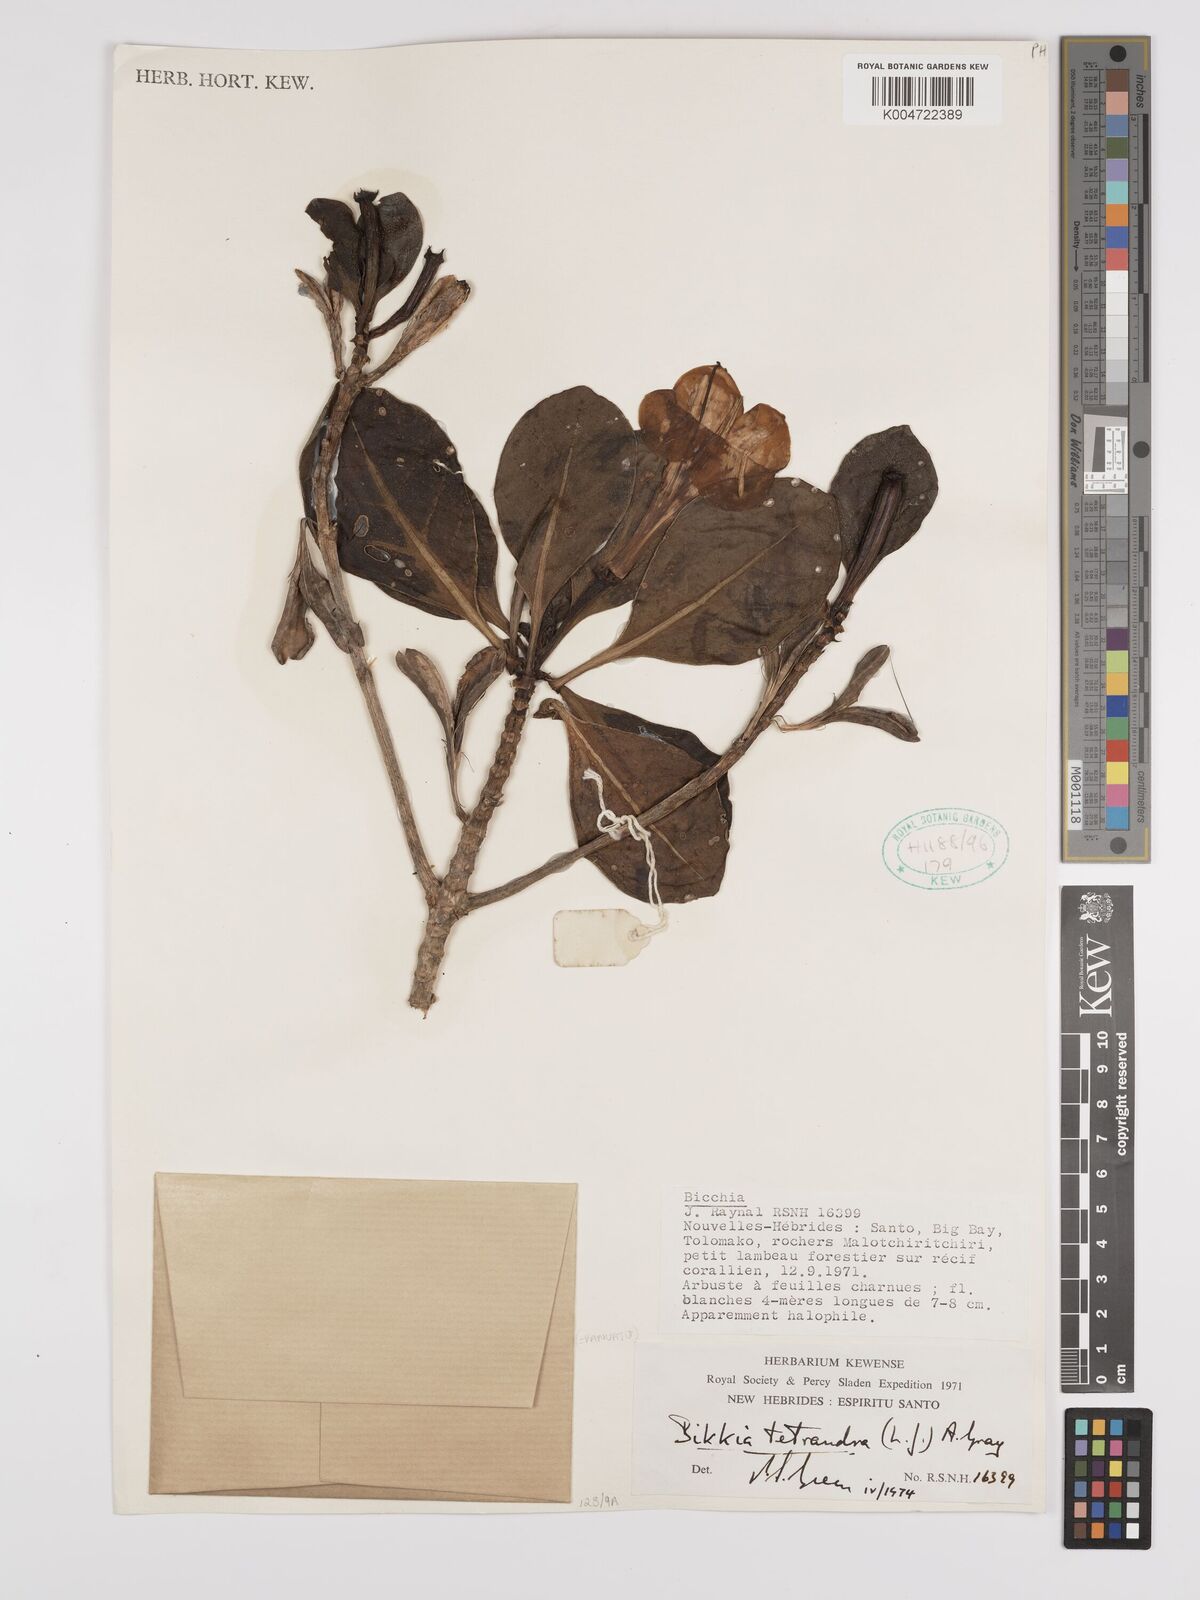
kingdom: Plantae
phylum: Tracheophyta
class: Magnoliopsida
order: Gentianales
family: Rubiaceae
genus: Bikkia
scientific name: Bikkia
